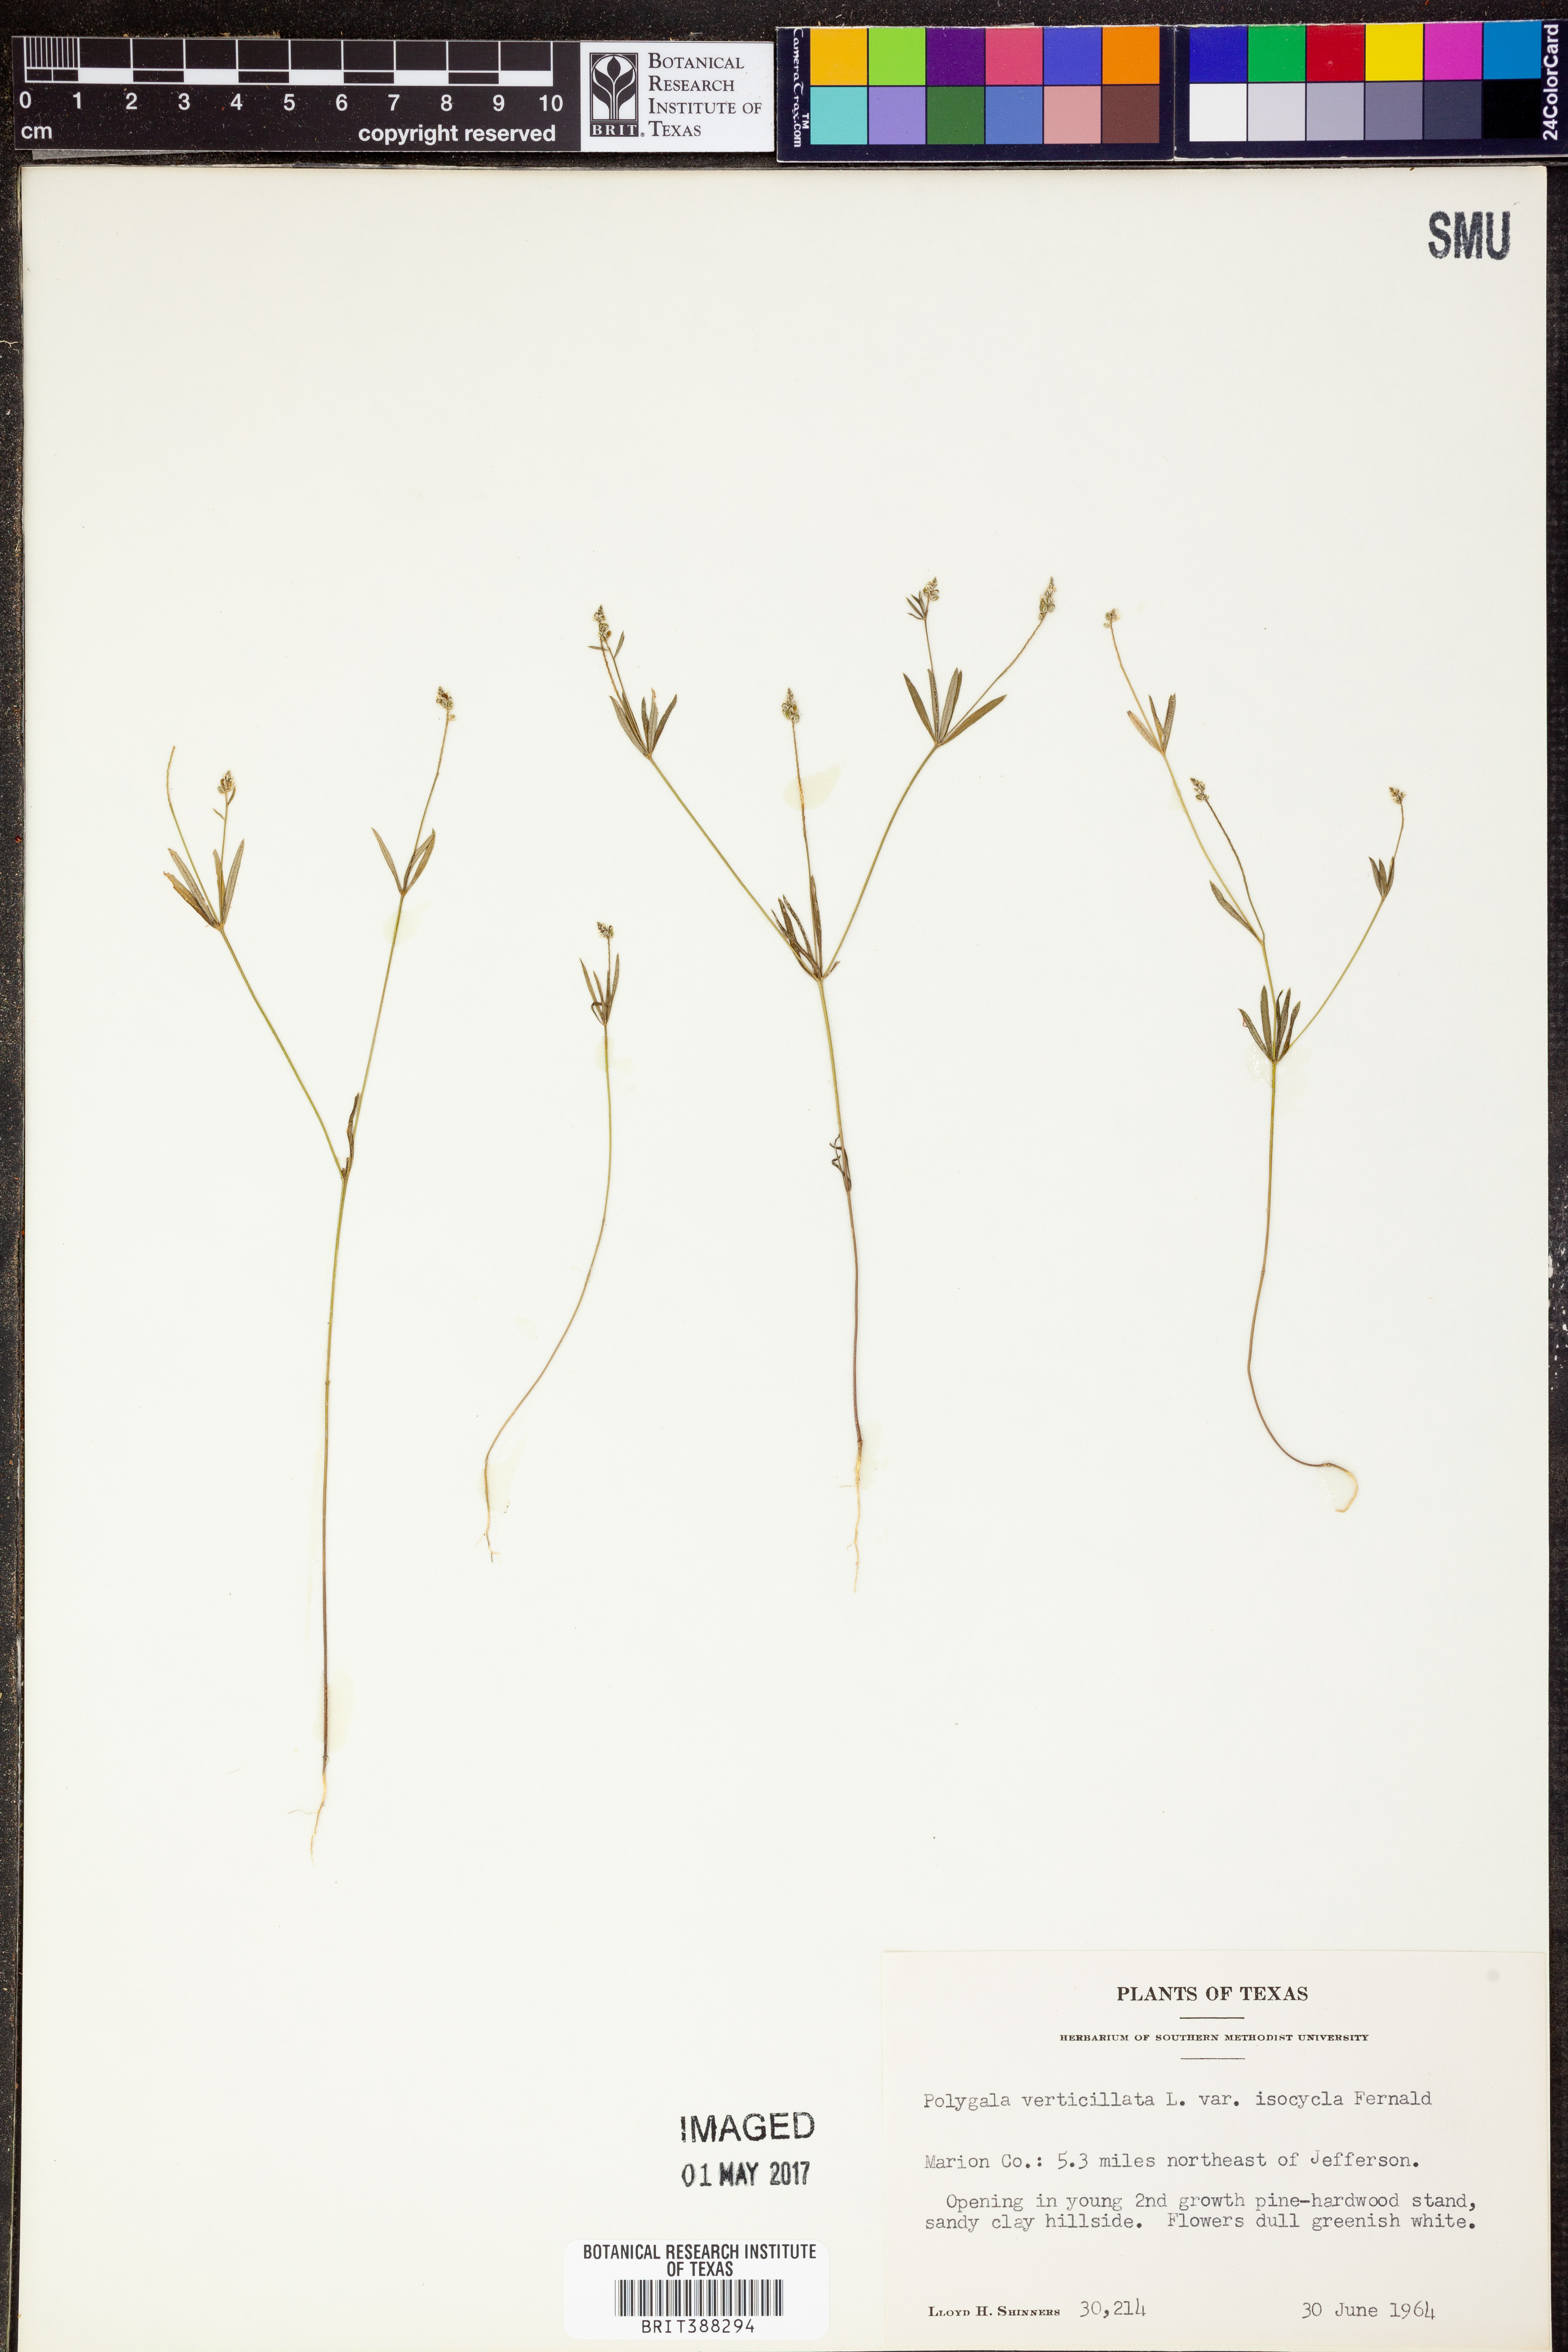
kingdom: Plantae
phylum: Tracheophyta
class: Magnoliopsida
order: Fabales
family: Polygalaceae
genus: Polygala
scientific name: Polygala verticillata
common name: Whorl milkwort
